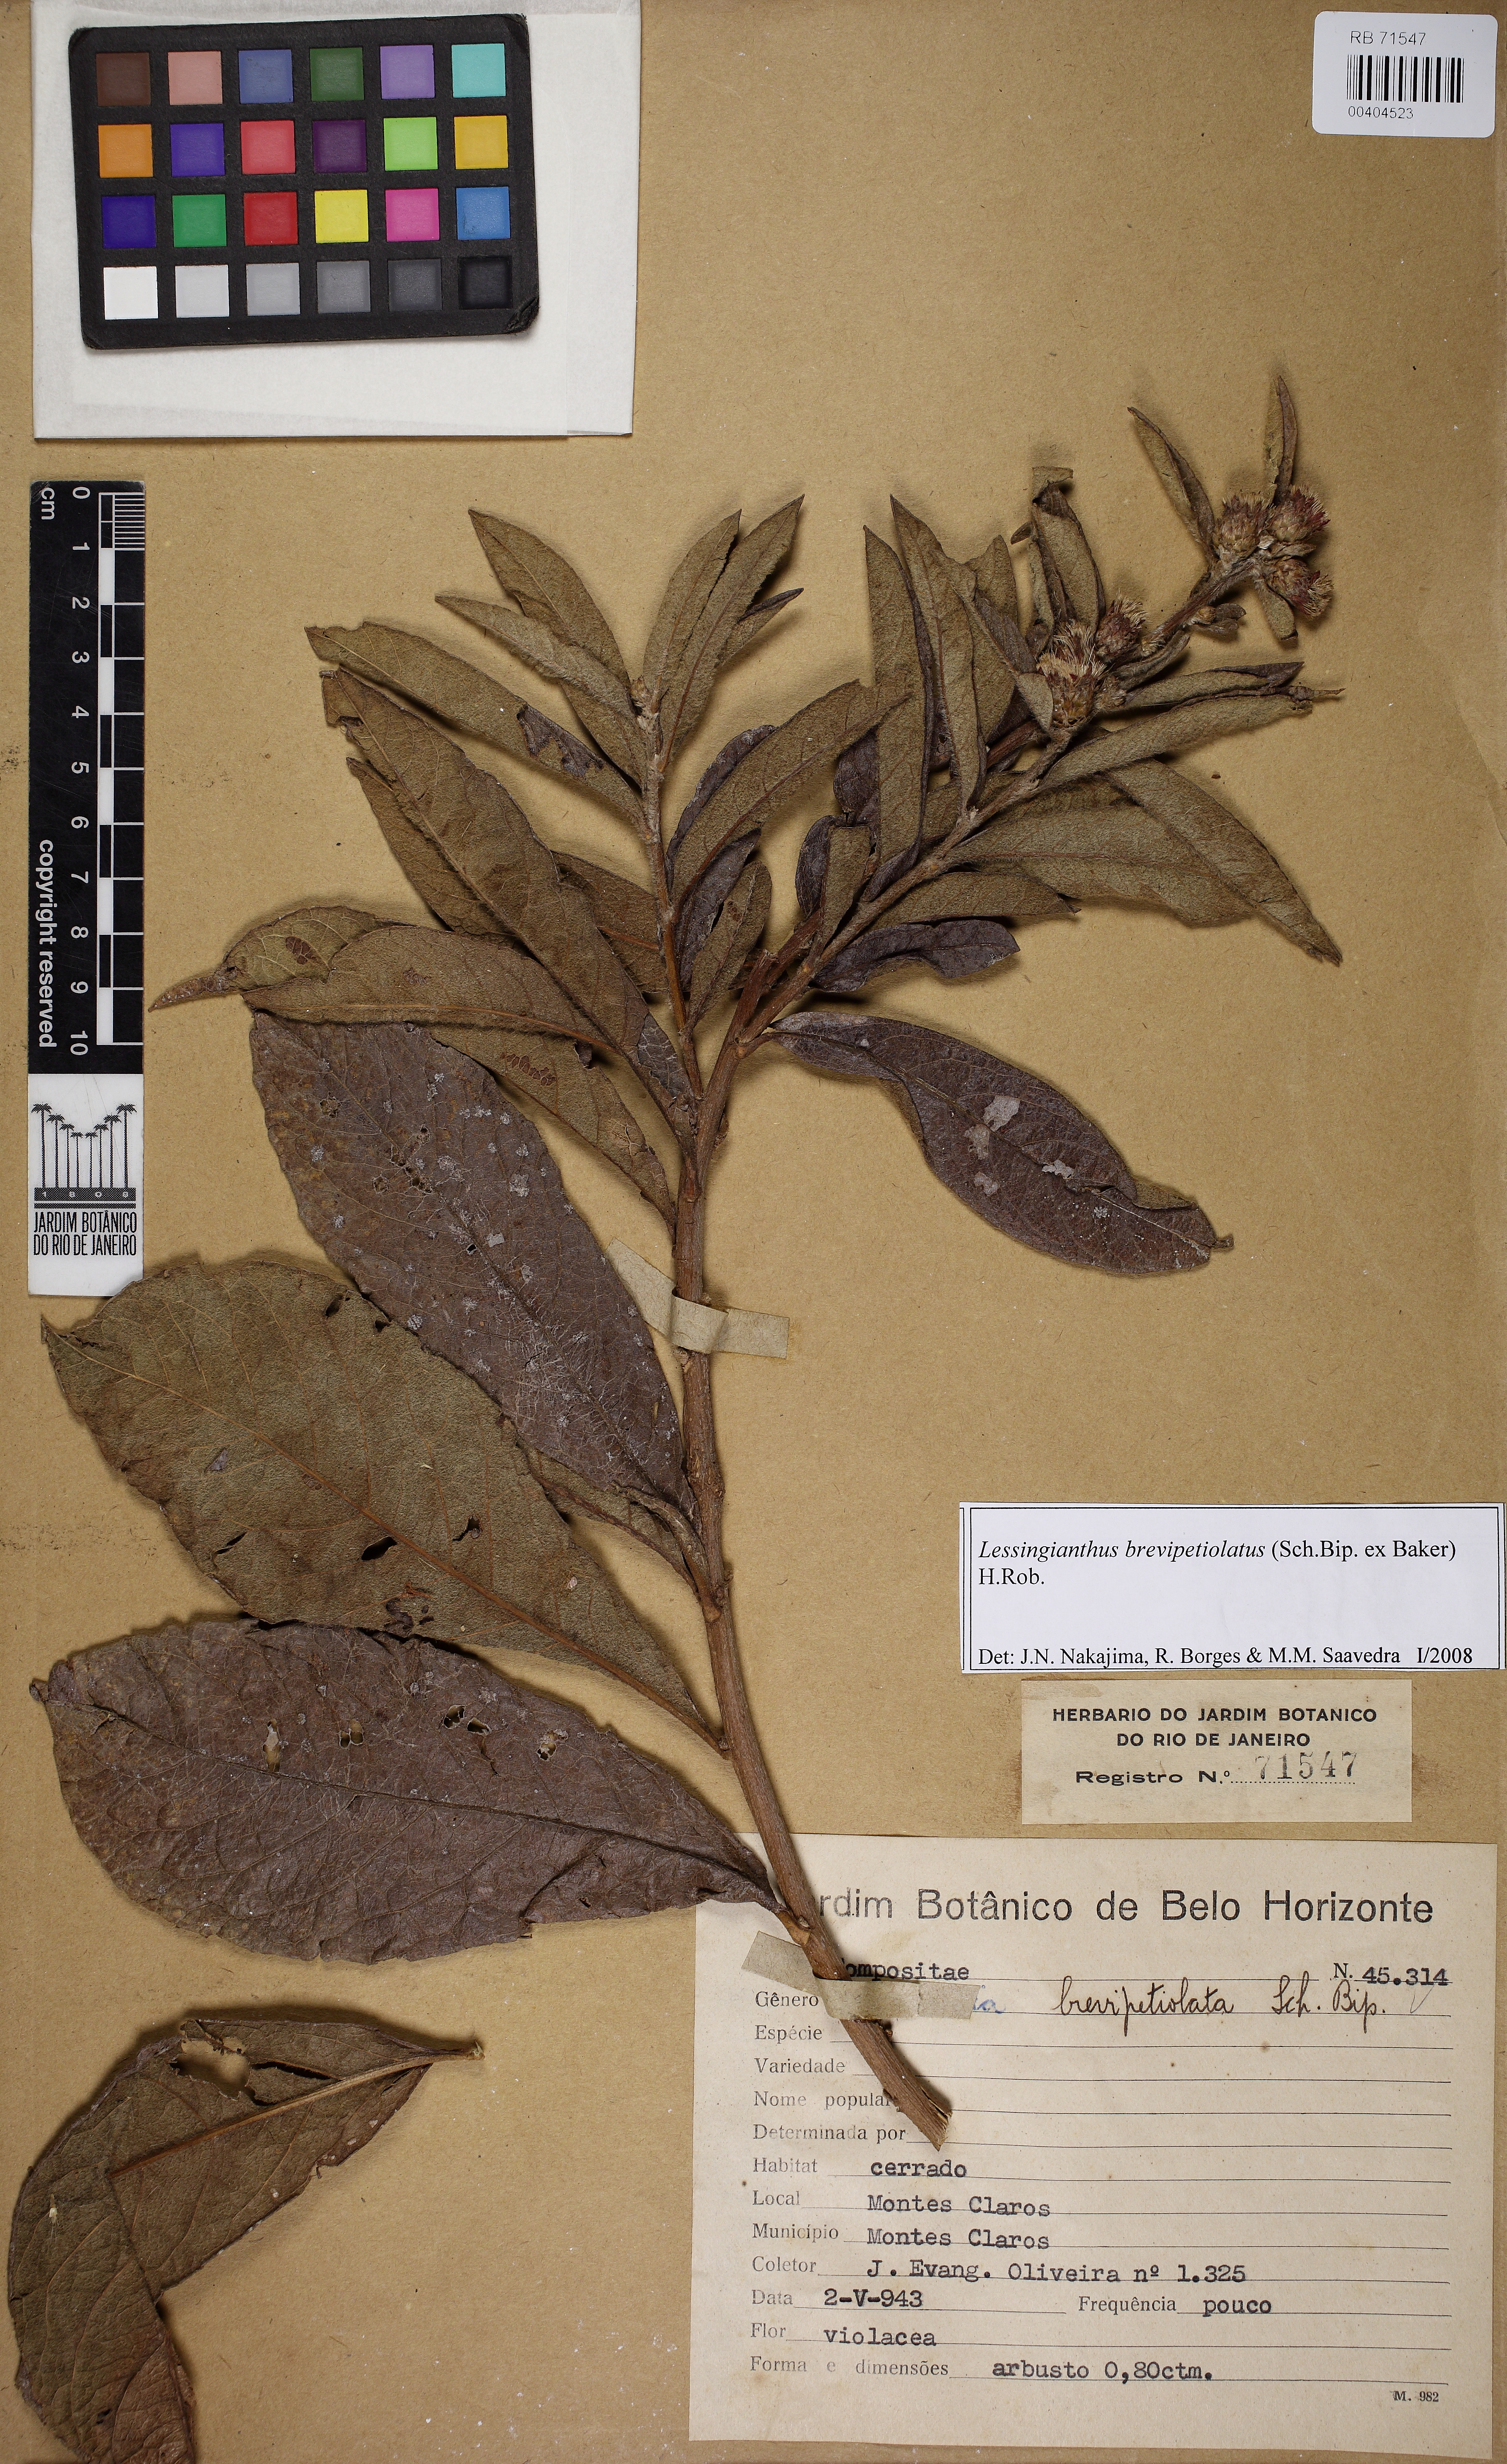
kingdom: Plantae
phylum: Tracheophyta
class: Magnoliopsida
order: Asterales
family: Asteraceae
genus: Lessingianthus
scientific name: Lessingianthus brevipetiolatus
